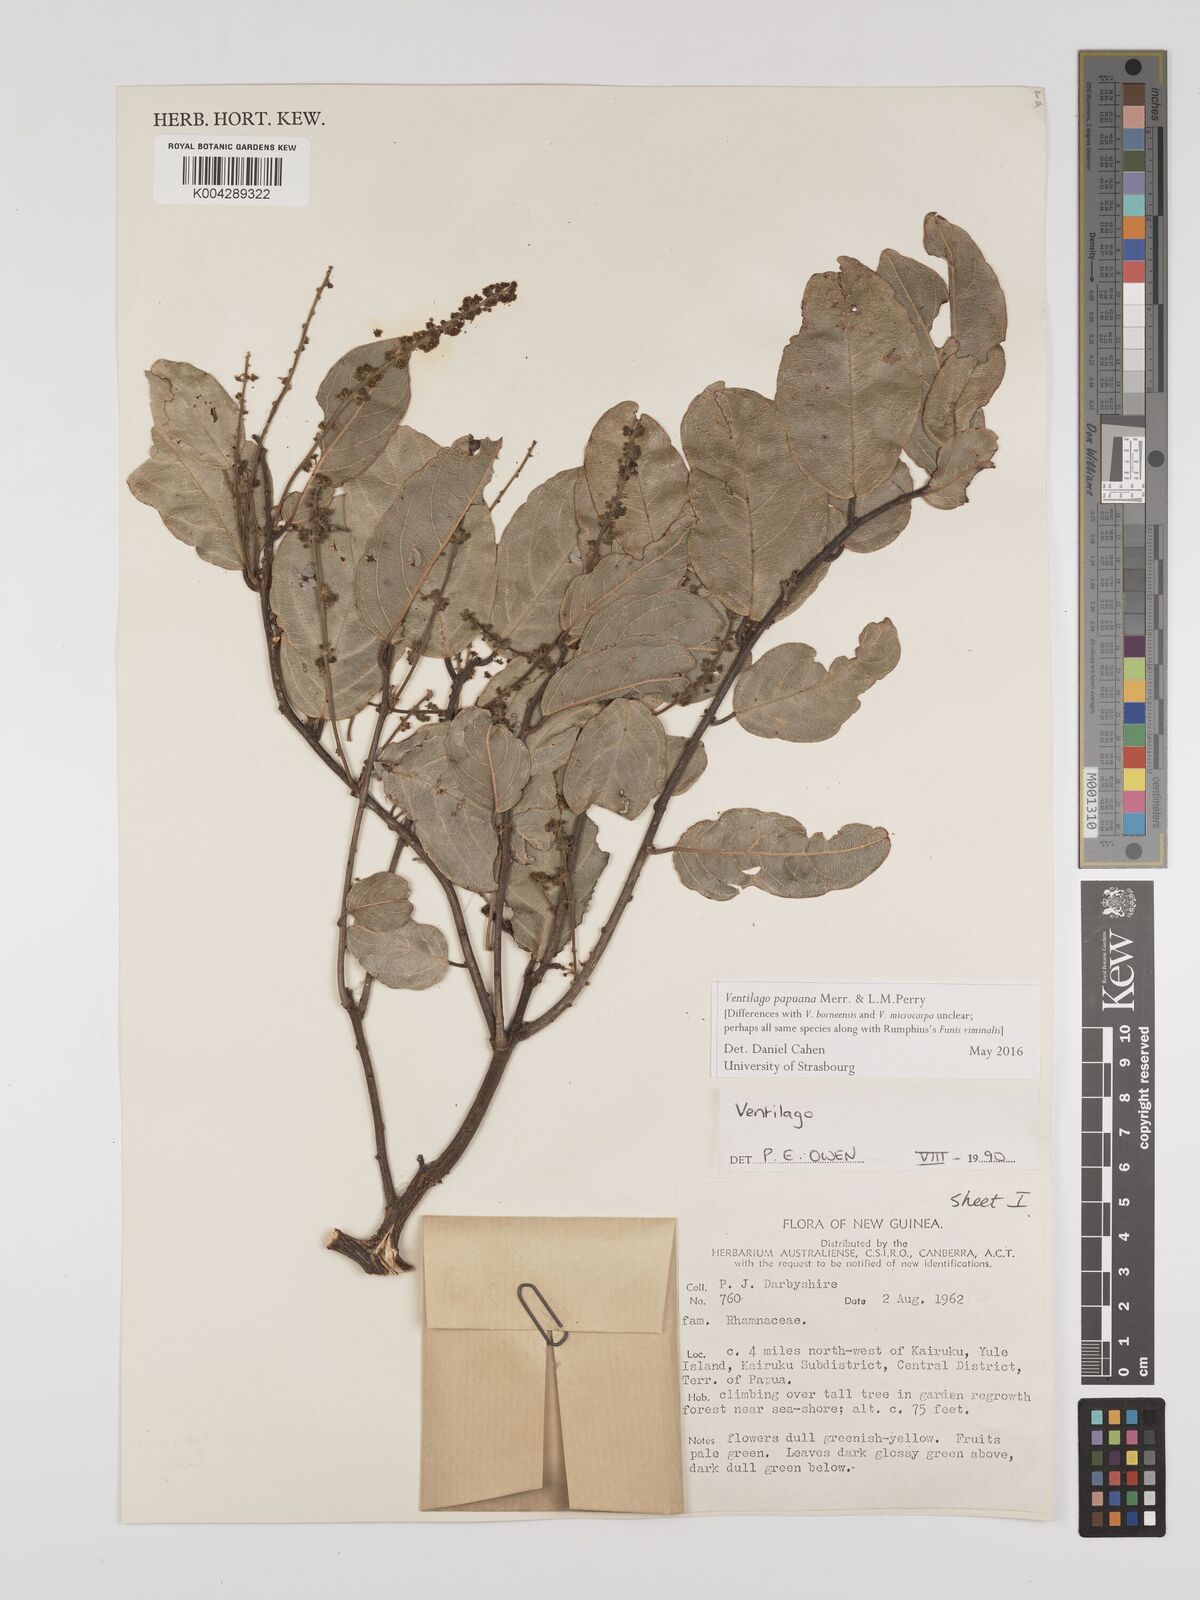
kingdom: Plantae
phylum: Tracheophyta
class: Magnoliopsida
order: Rosales
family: Rhamnaceae
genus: Ventilago
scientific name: Ventilago papuana
